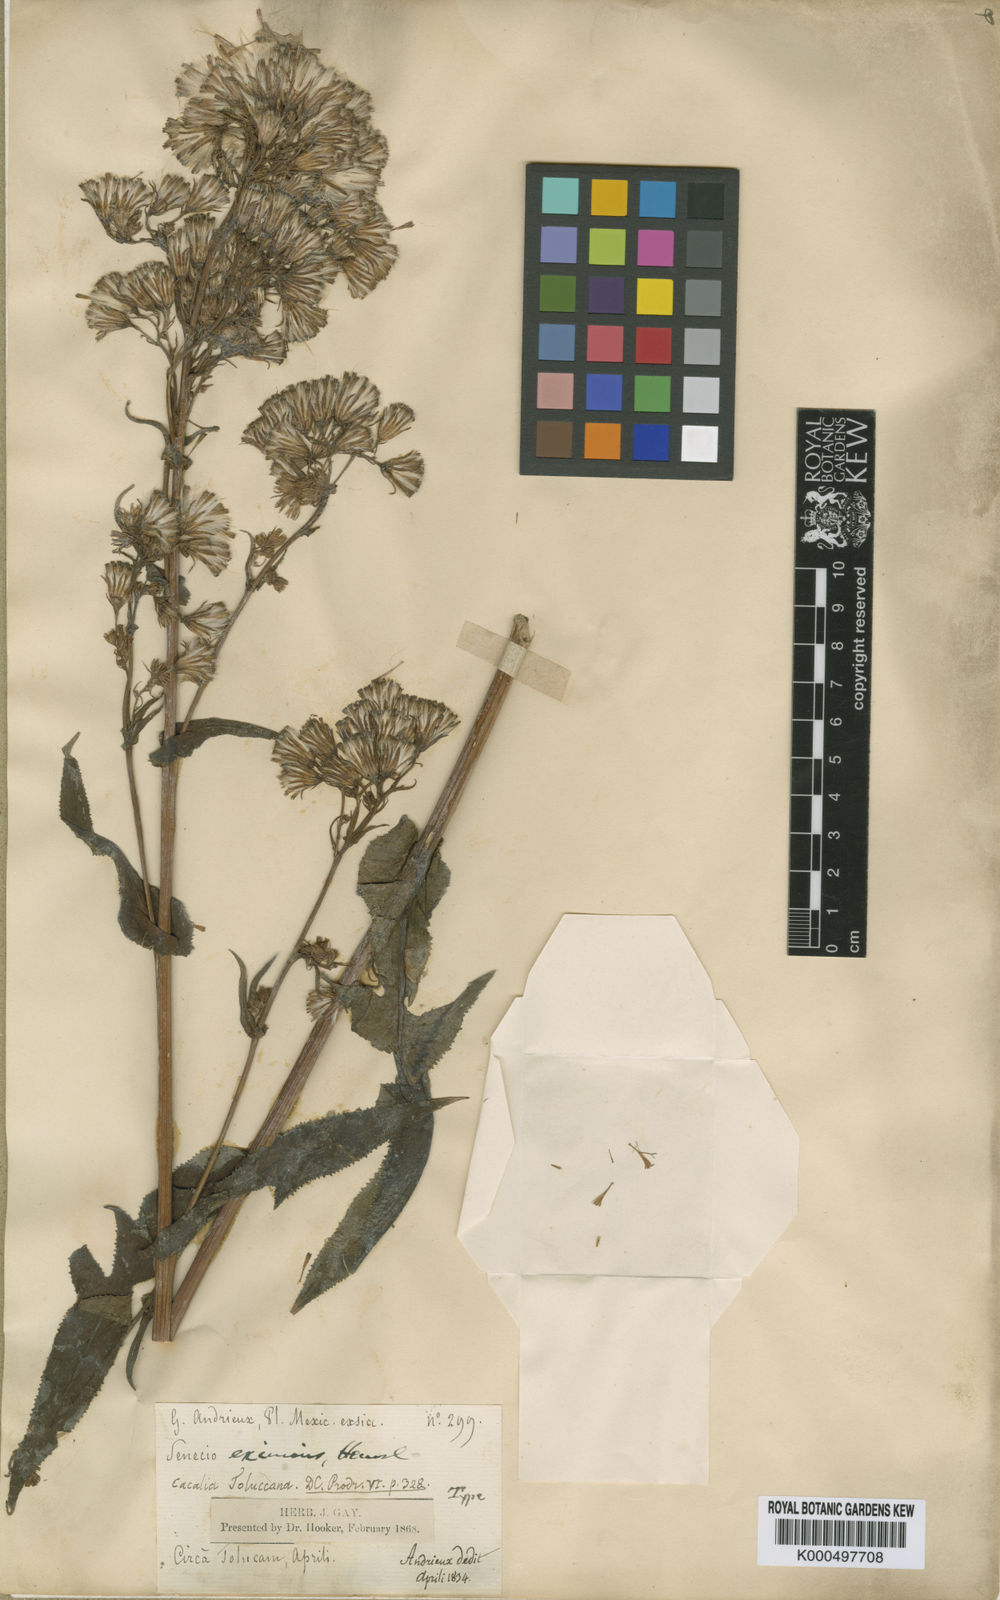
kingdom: Plantae
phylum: Tracheophyta
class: Magnoliopsida
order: Asterales
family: Asteraceae
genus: Senecio
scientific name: Senecio callosus
